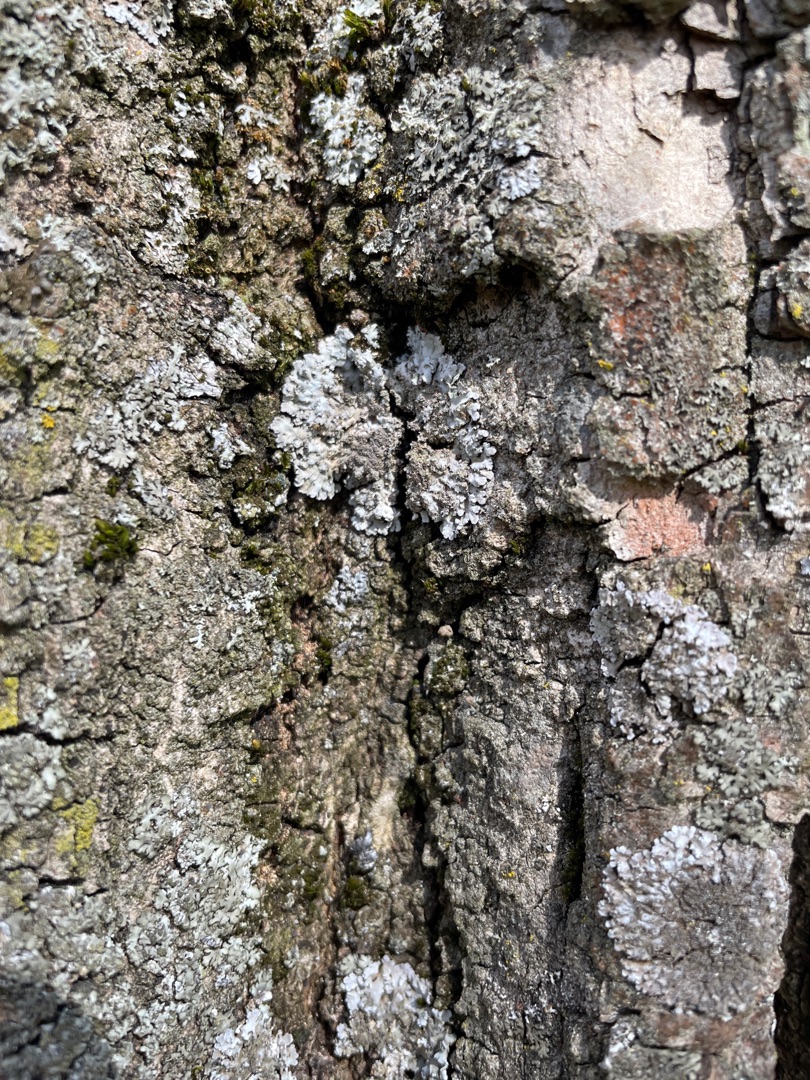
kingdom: Fungi
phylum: Ascomycota
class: Lecanoromycetes
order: Caliciales
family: Physciaceae
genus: Physconia
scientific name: Physconia
